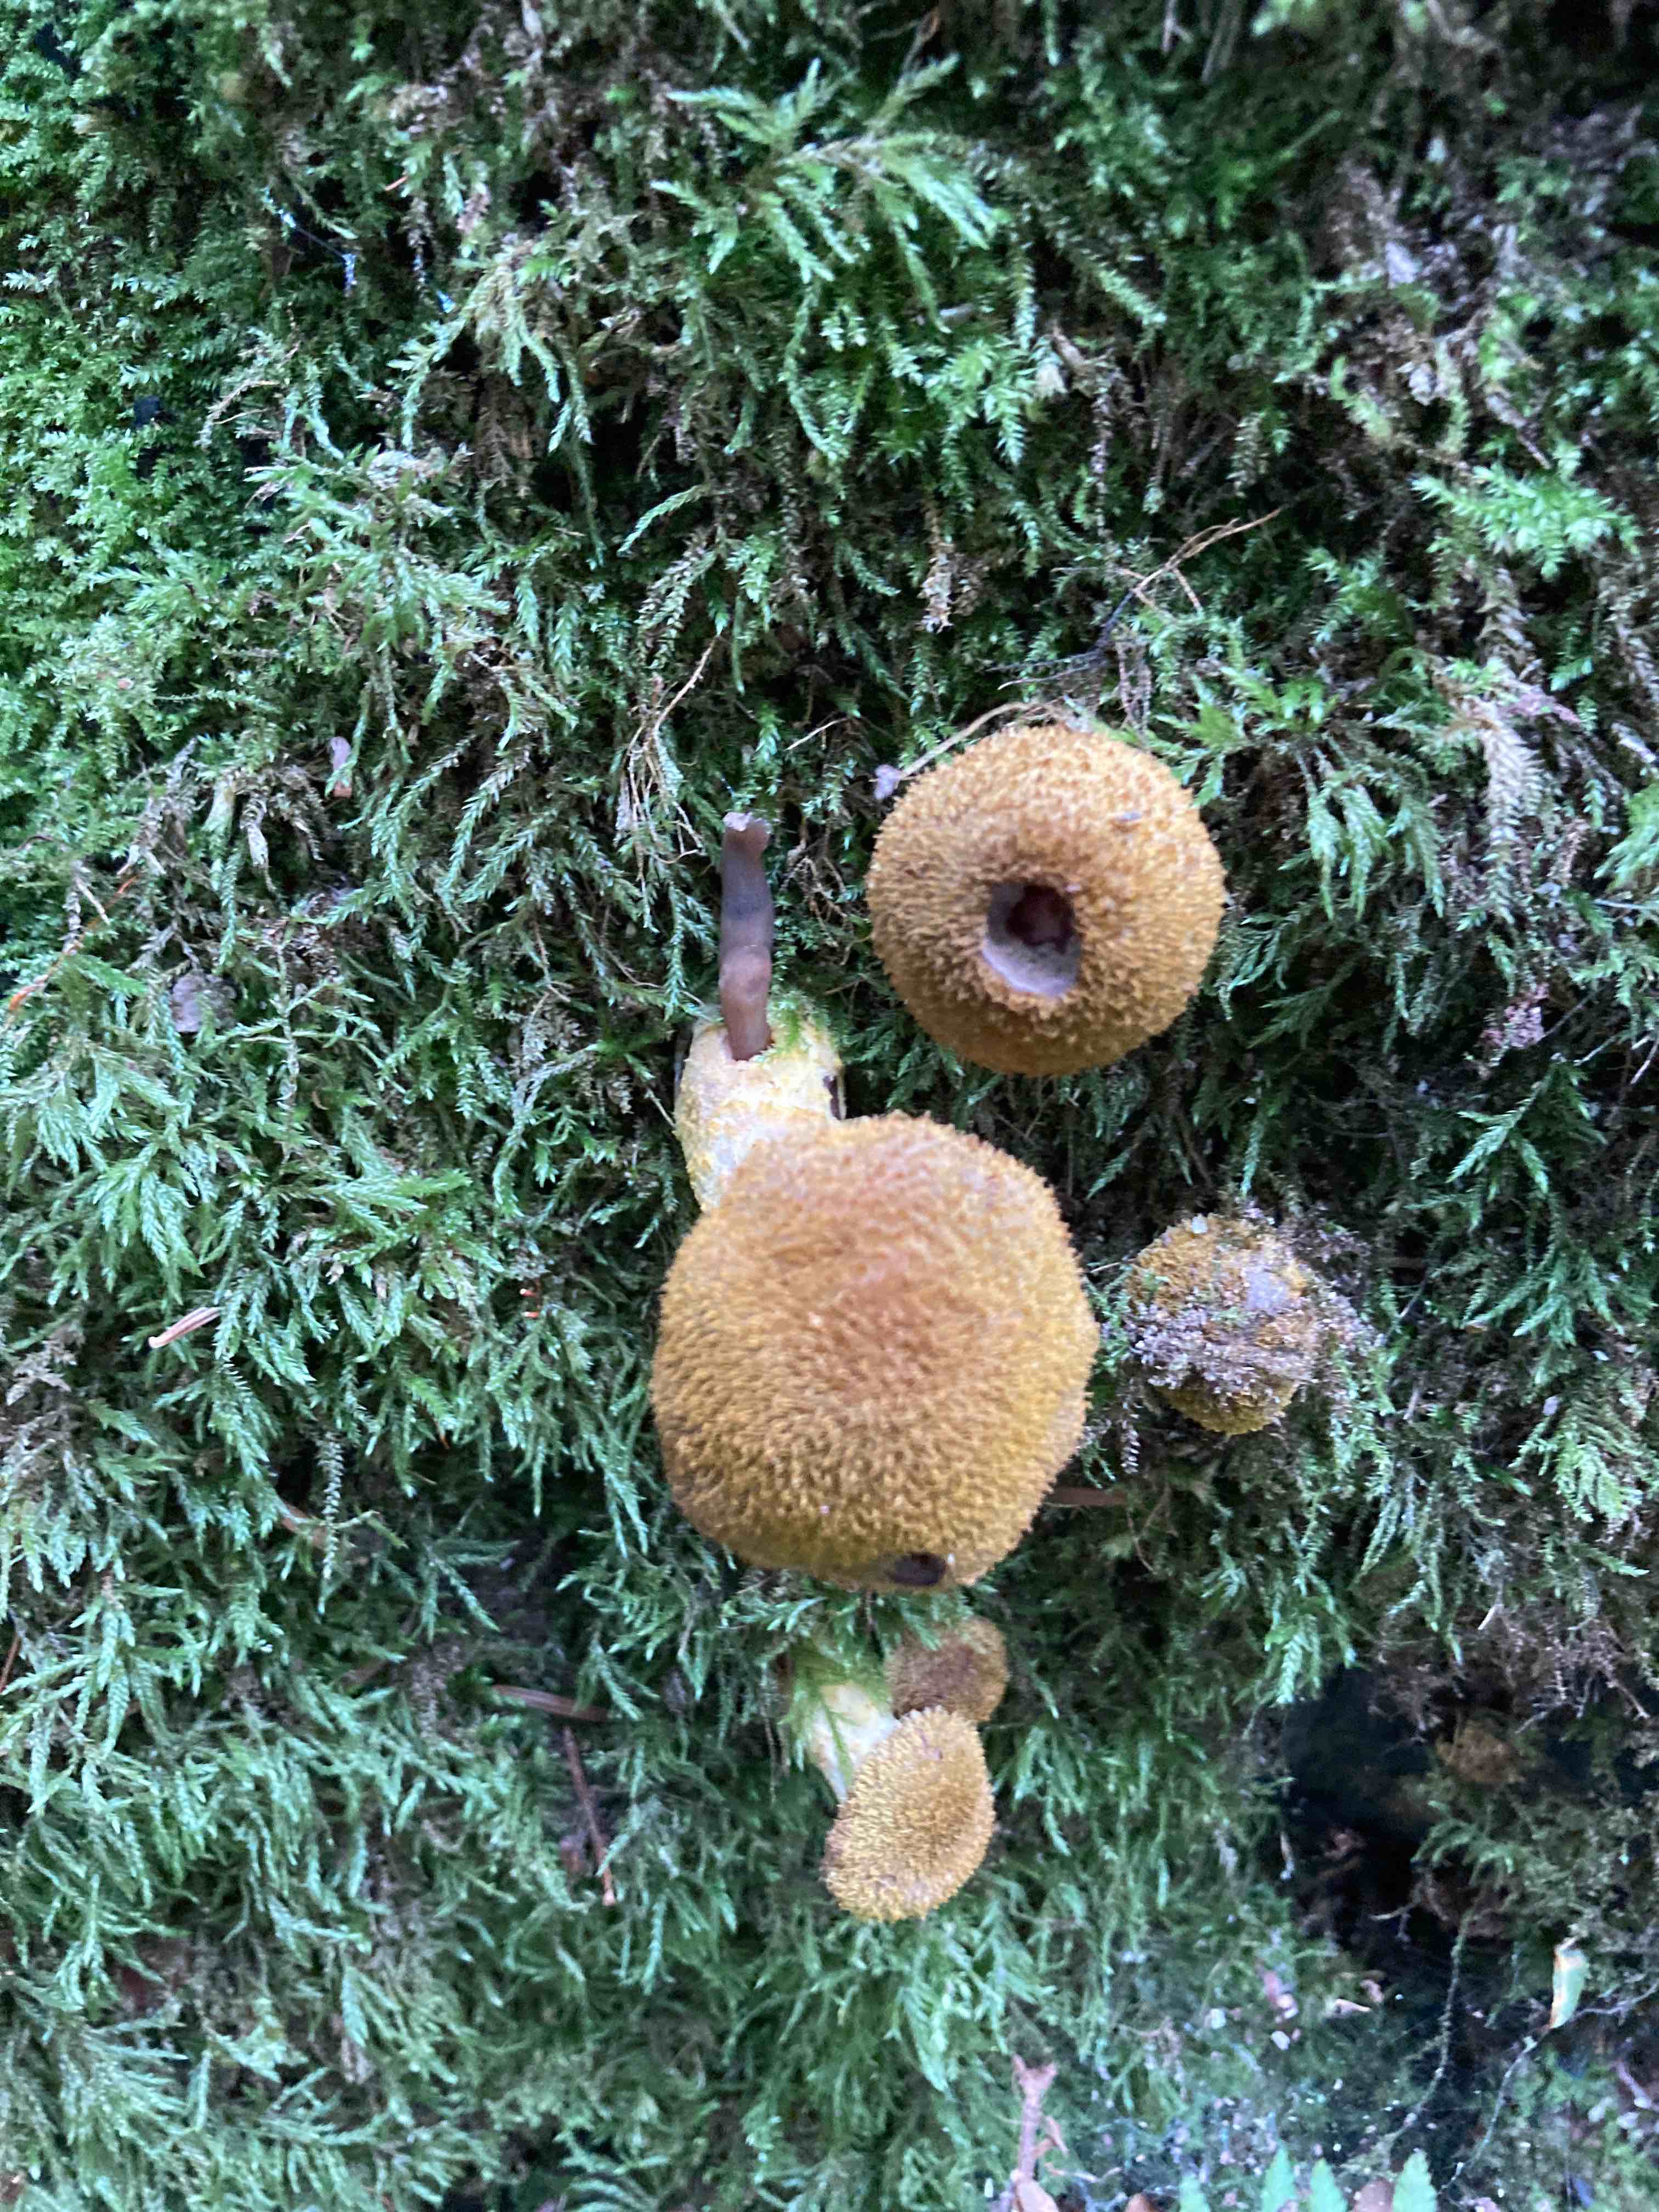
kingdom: Fungi
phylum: Basidiomycota
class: Agaricomycetes
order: Agaricales
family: Physalacriaceae
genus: Armillaria
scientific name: Armillaria lutea
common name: køllestokket honningsvamp
